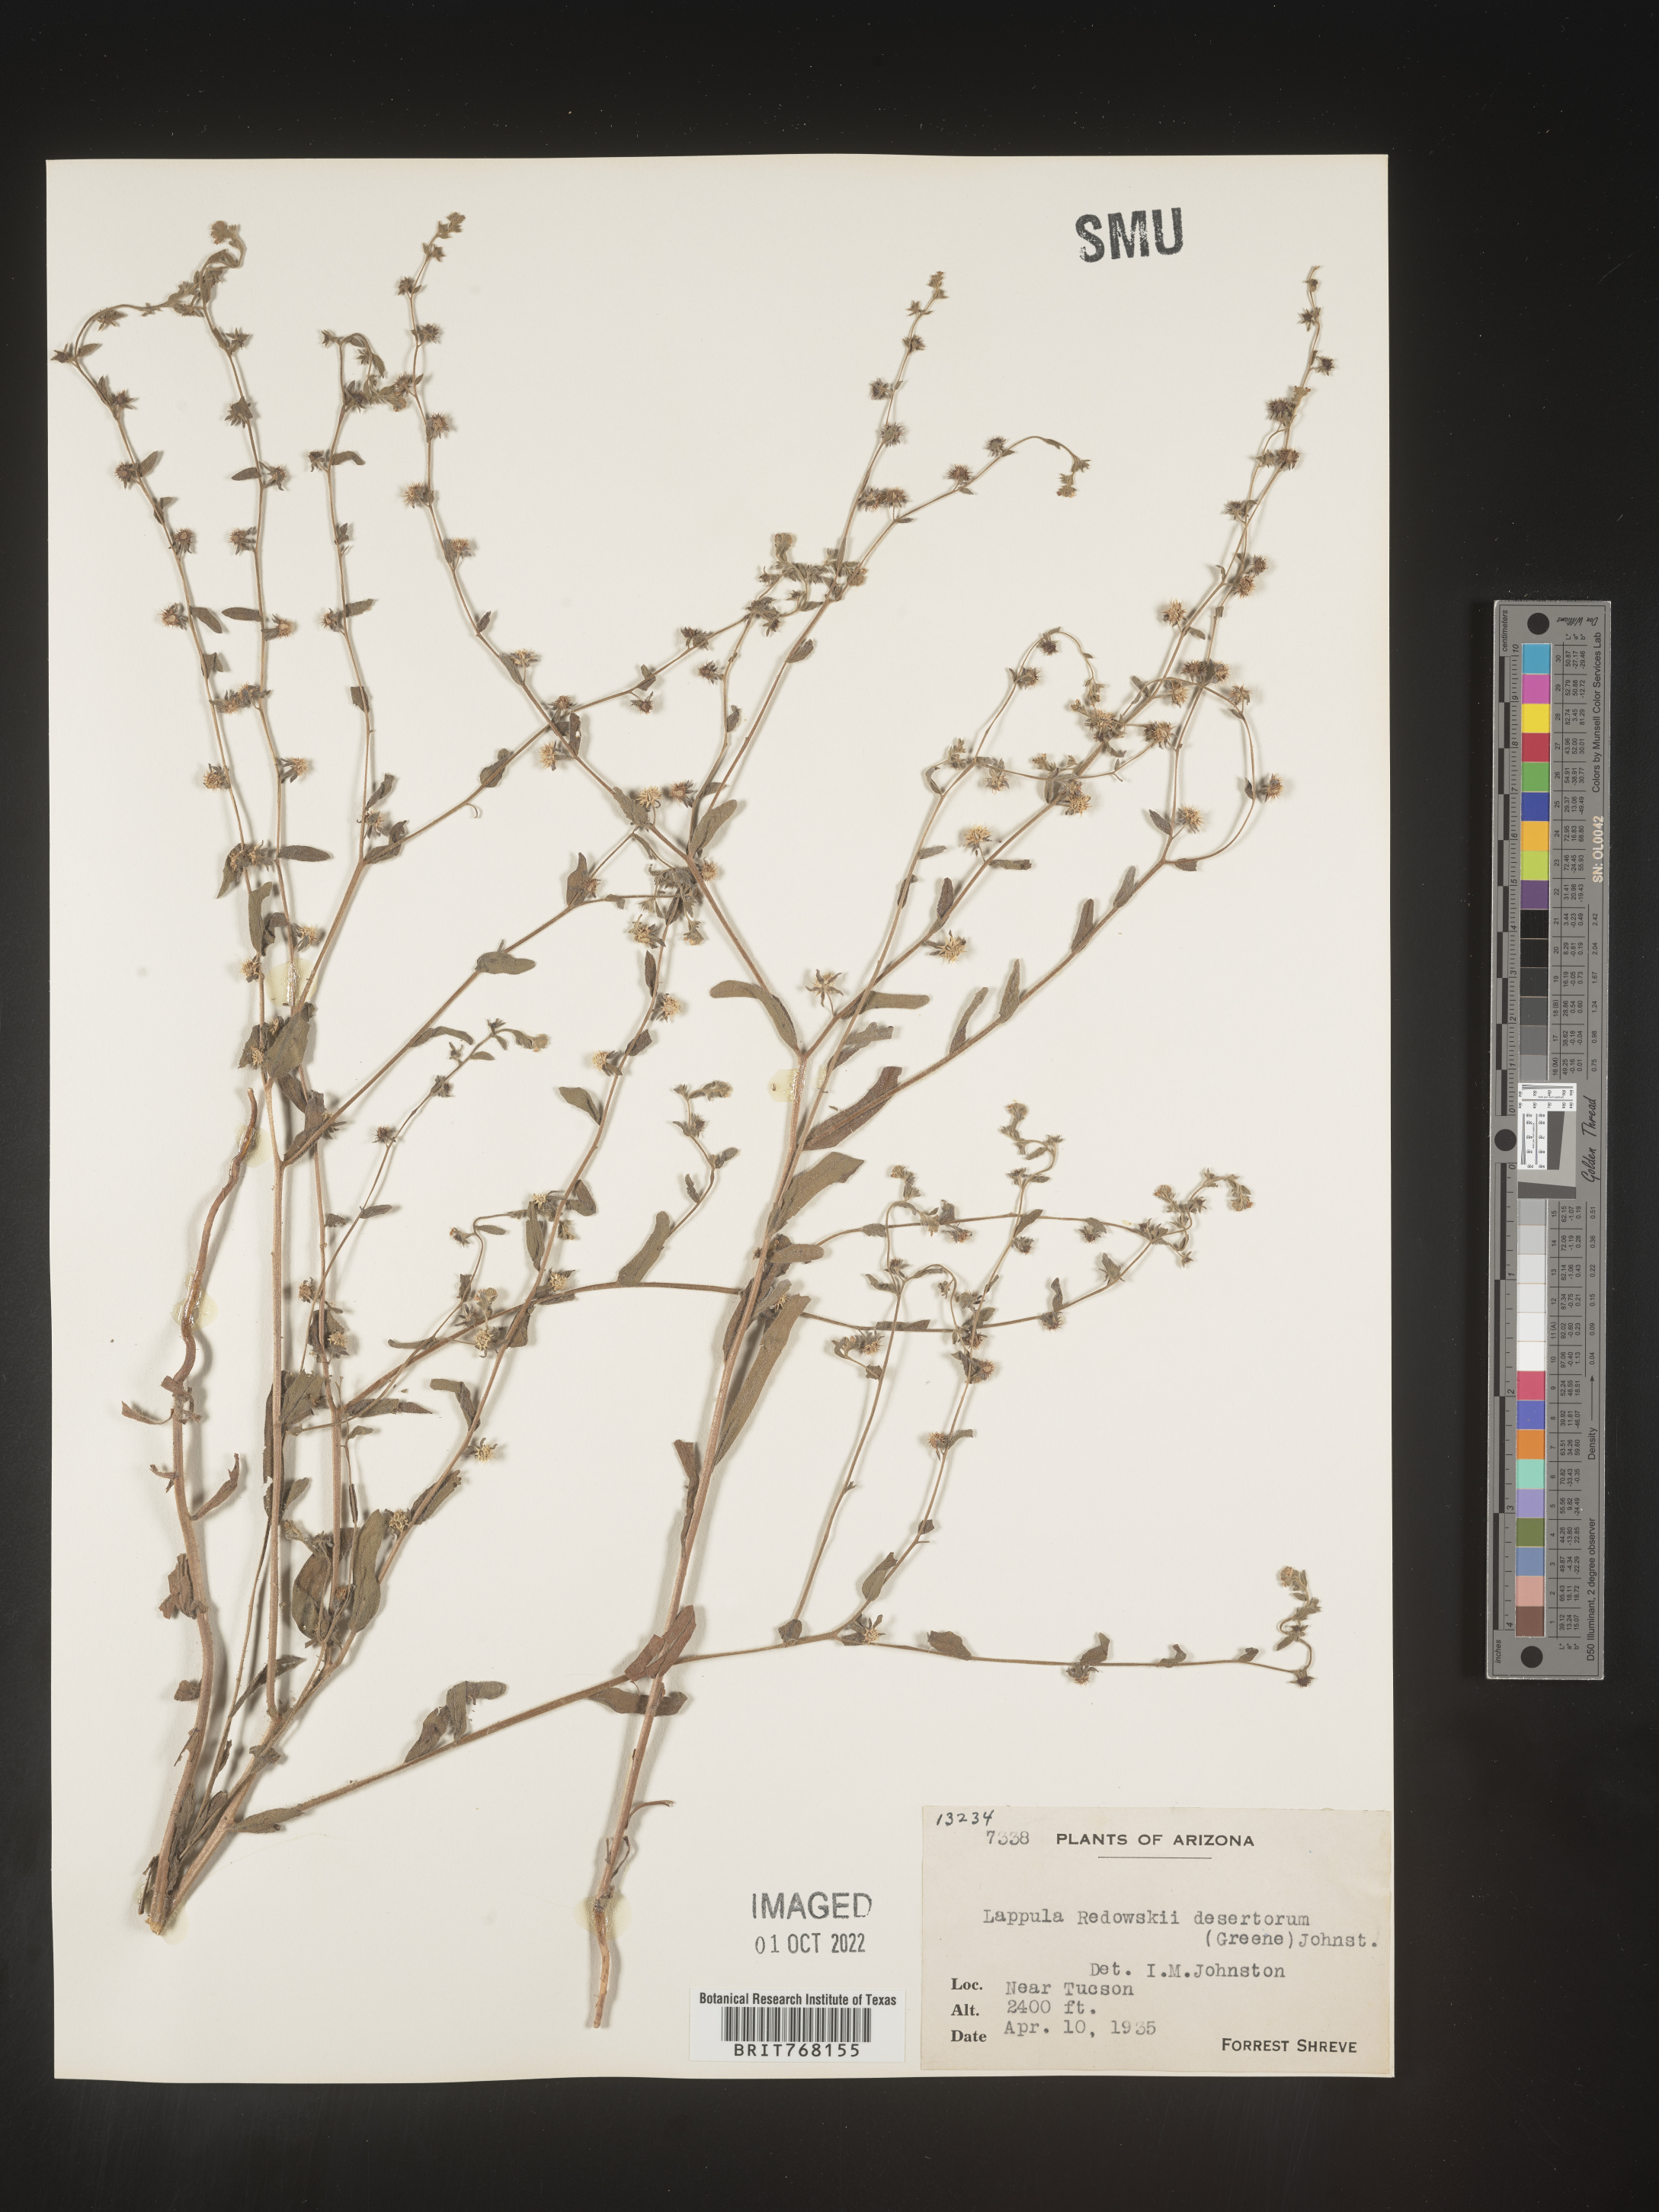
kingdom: Plantae
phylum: Tracheophyta
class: Magnoliopsida
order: Boraginales
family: Boraginaceae
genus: Lappula
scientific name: Lappula redowskii
